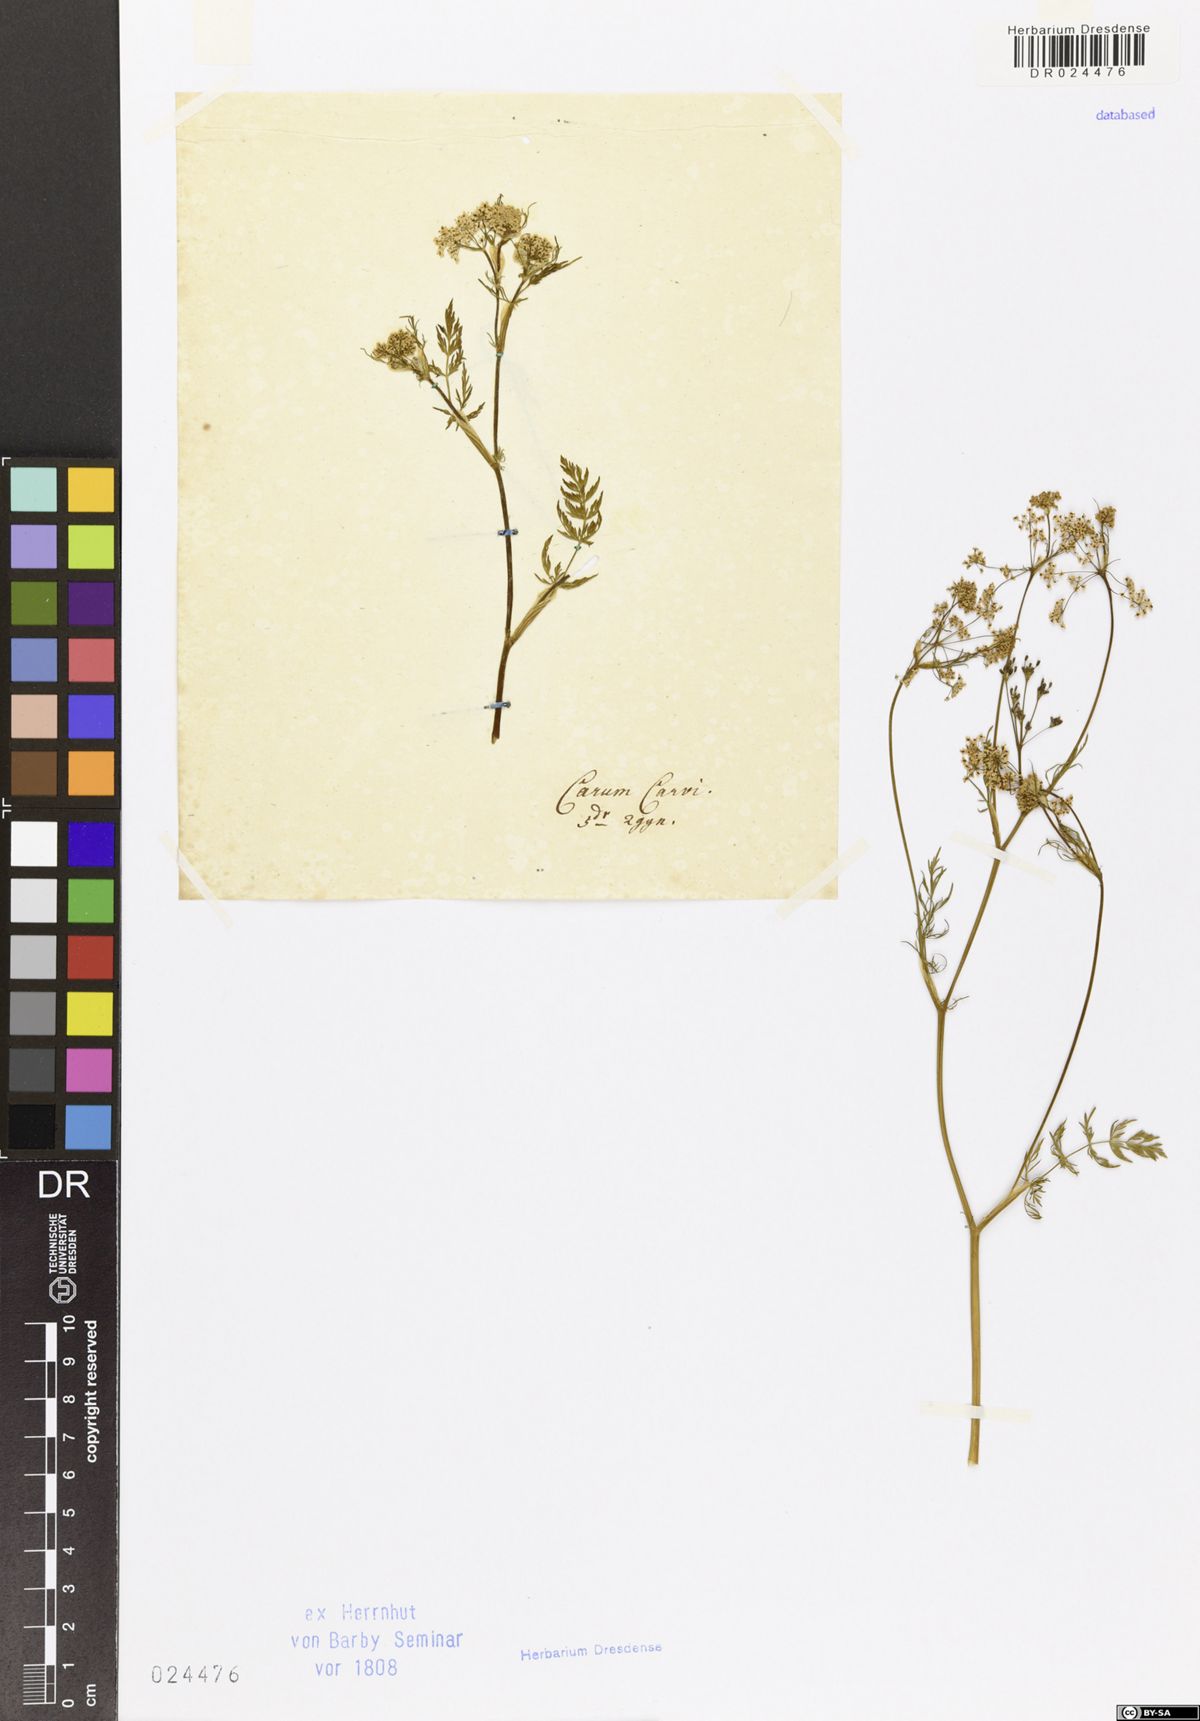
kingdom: Plantae
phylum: Tracheophyta
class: Magnoliopsida
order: Apiales
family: Apiaceae
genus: Carum
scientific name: Carum carvi
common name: Caraway
